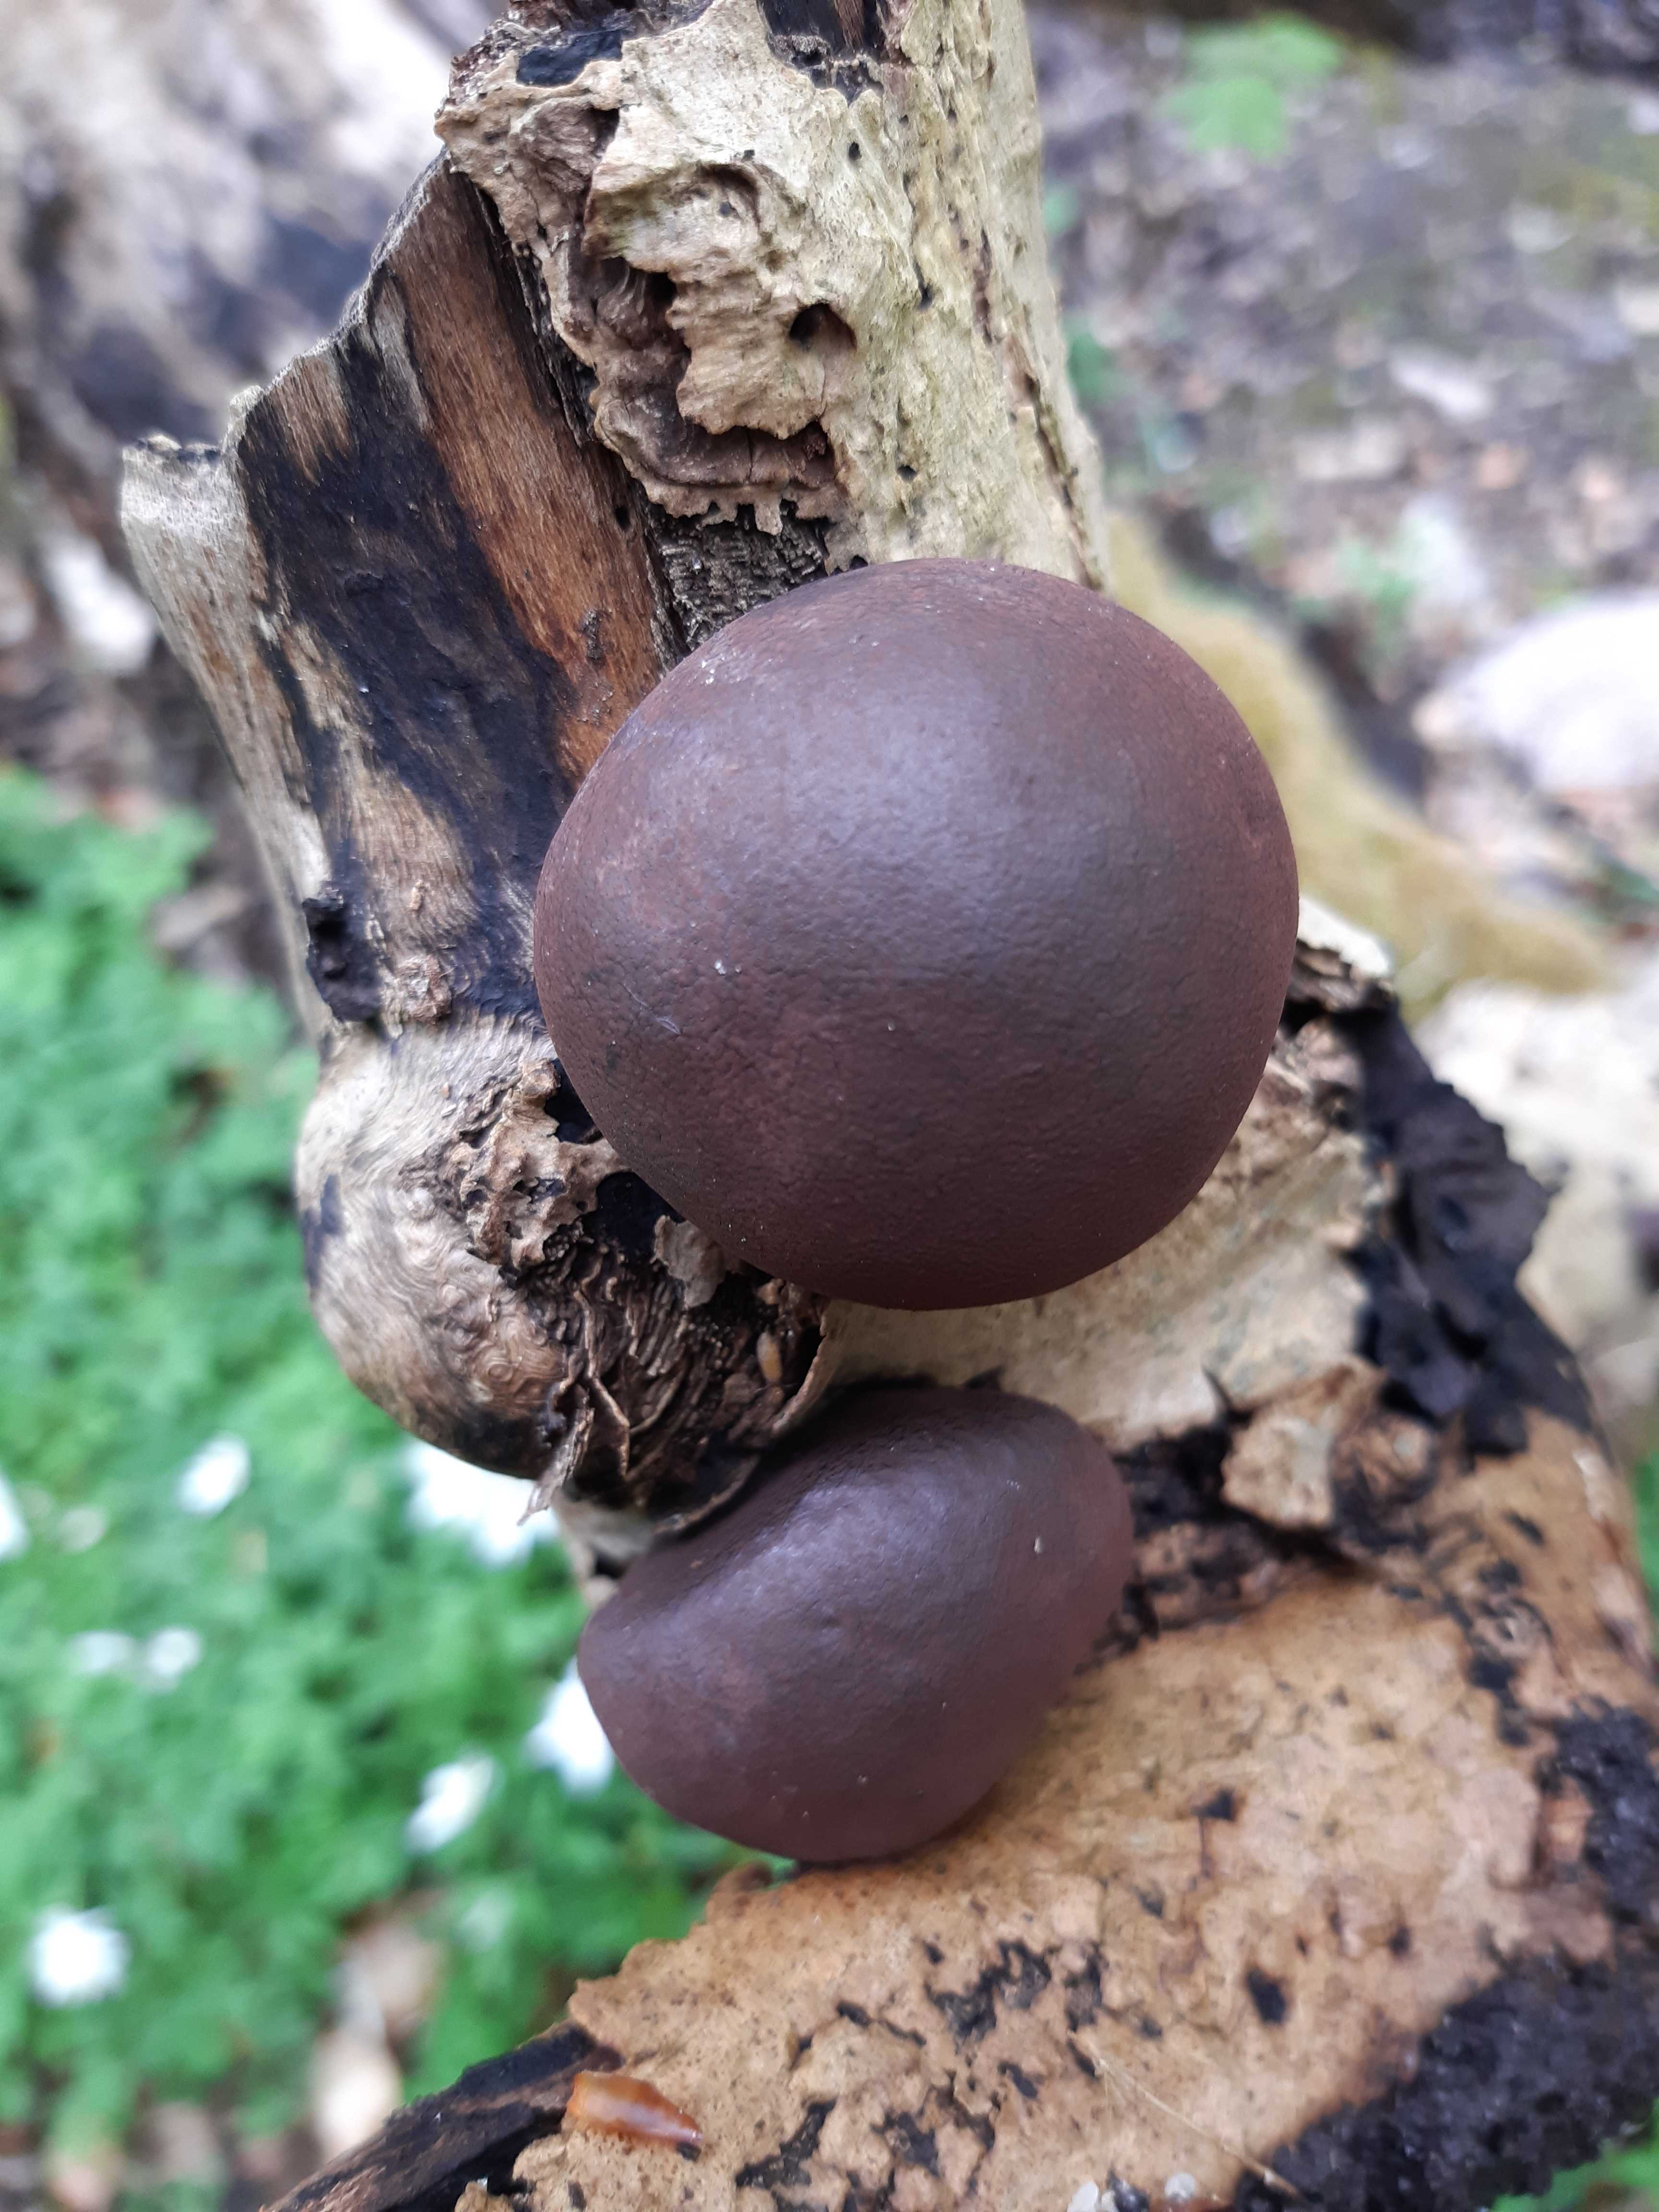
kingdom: Fungi
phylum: Ascomycota
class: Sordariomycetes
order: Xylariales
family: Hypoxylaceae
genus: Daldinia
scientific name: Daldinia concentrica
